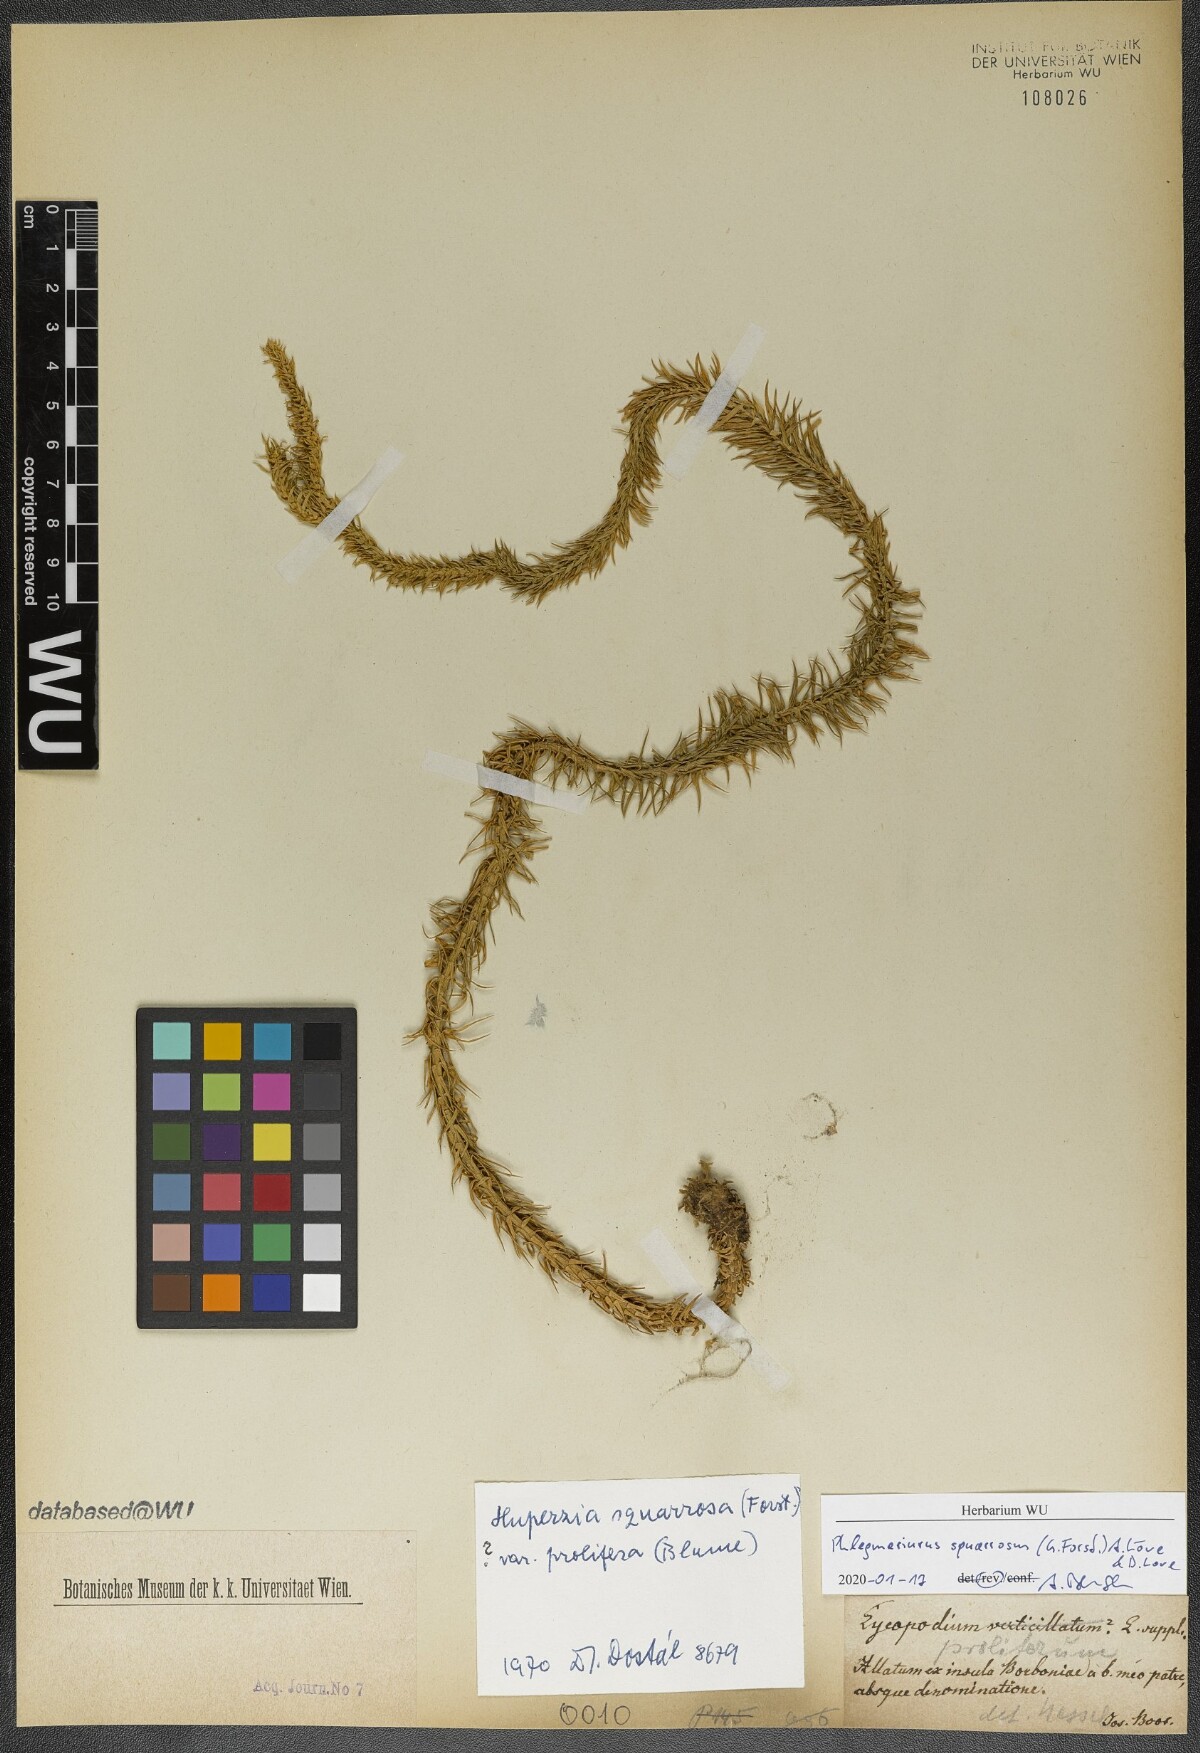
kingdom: Plantae
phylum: Tracheophyta
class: Lycopodiopsida
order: Lycopodiales
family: Lycopodiaceae
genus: Phlegmariurus
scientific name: Phlegmariurus squarrosus
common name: Rock tassel-fern
